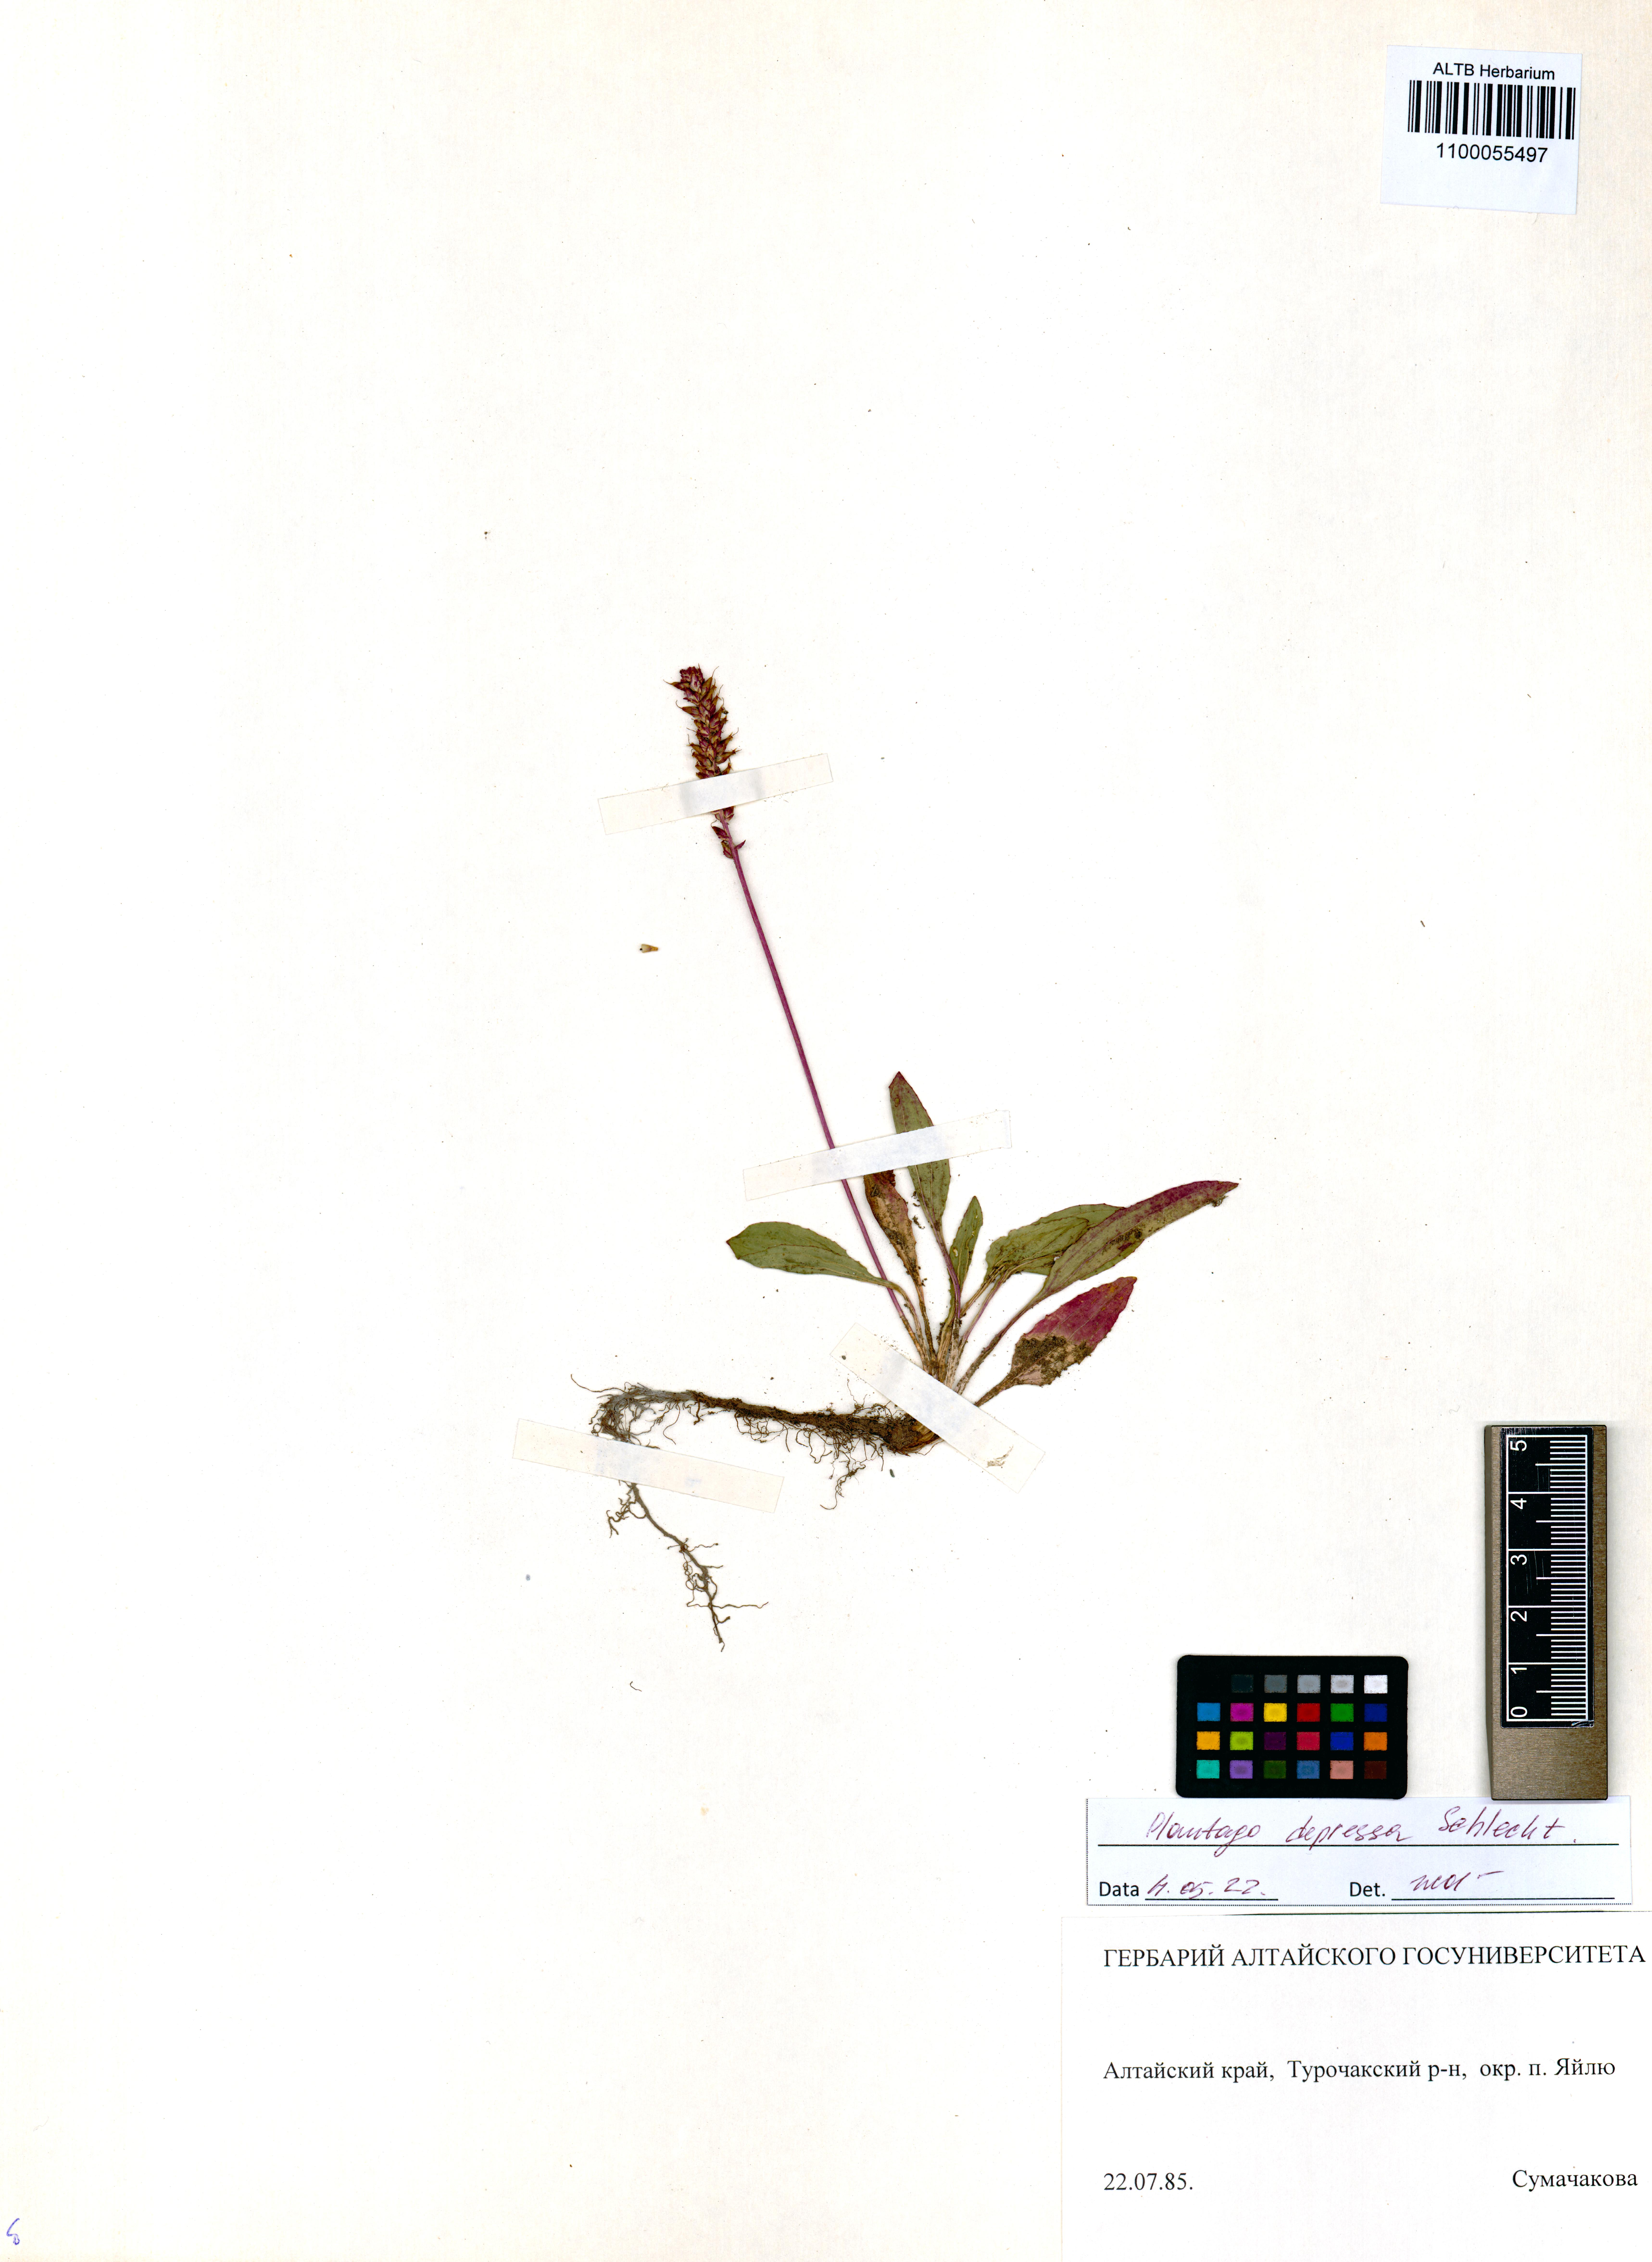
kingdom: Plantae
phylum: Tracheophyta
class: Magnoliopsida
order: Lamiales
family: Plantaginaceae
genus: Plantago
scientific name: Plantago depressa
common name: Depressed plantain
